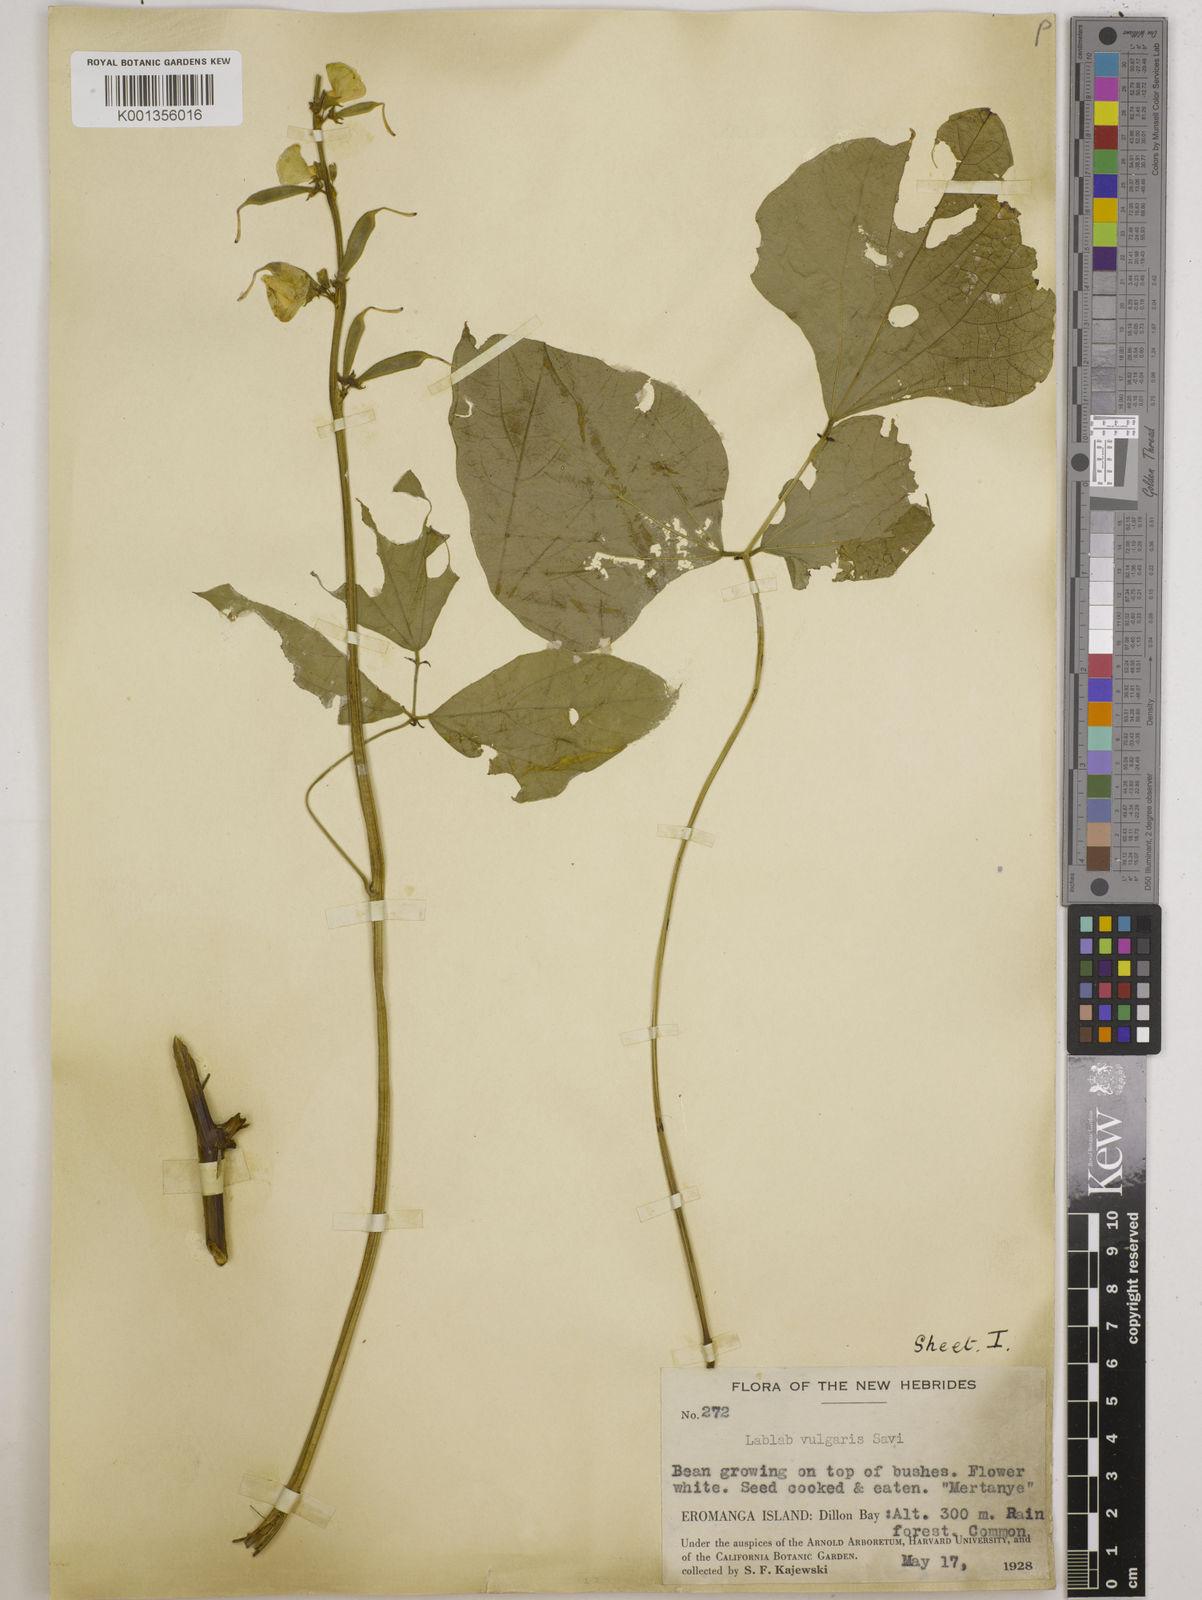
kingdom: Plantae
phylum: Tracheophyta
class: Magnoliopsida
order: Fabales
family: Fabaceae
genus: Lablab
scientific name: Lablab purpureus
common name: Lablab-bean
